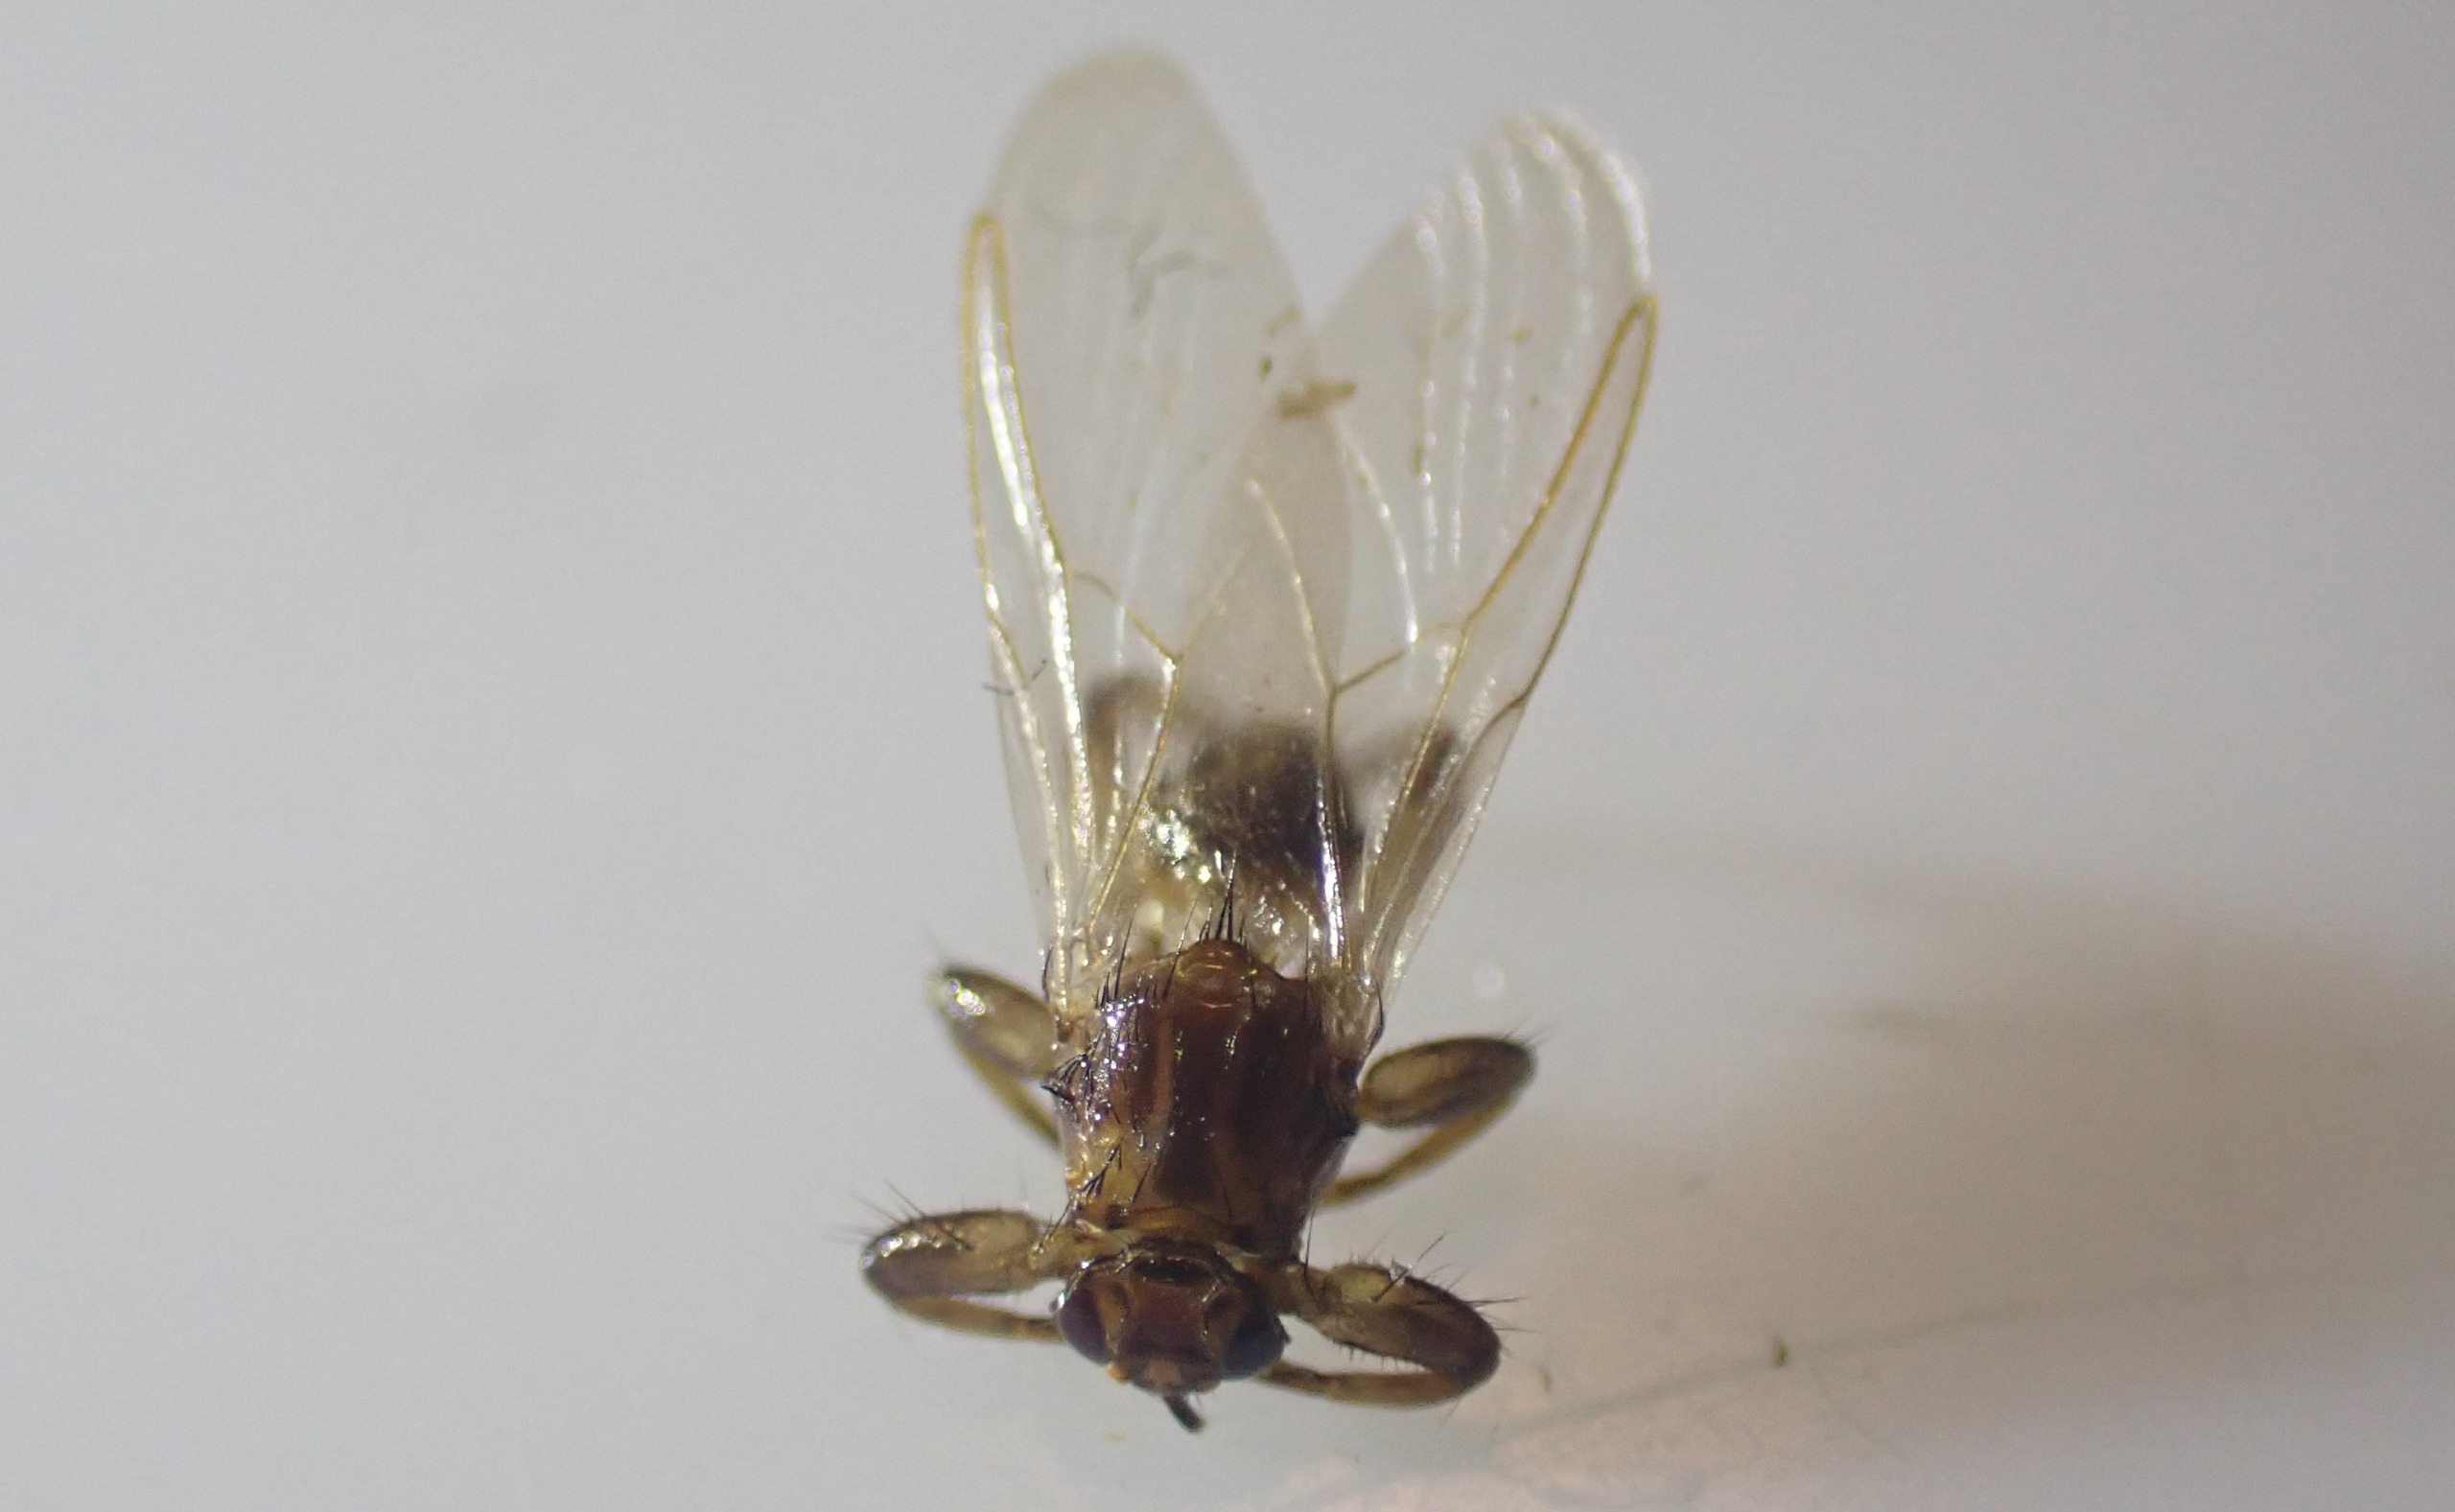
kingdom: Animalia
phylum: Arthropoda
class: Insecta
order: Diptera
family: Hippoboscidae
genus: Lipoptena
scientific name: Lipoptena cervi
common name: Hjortelus
